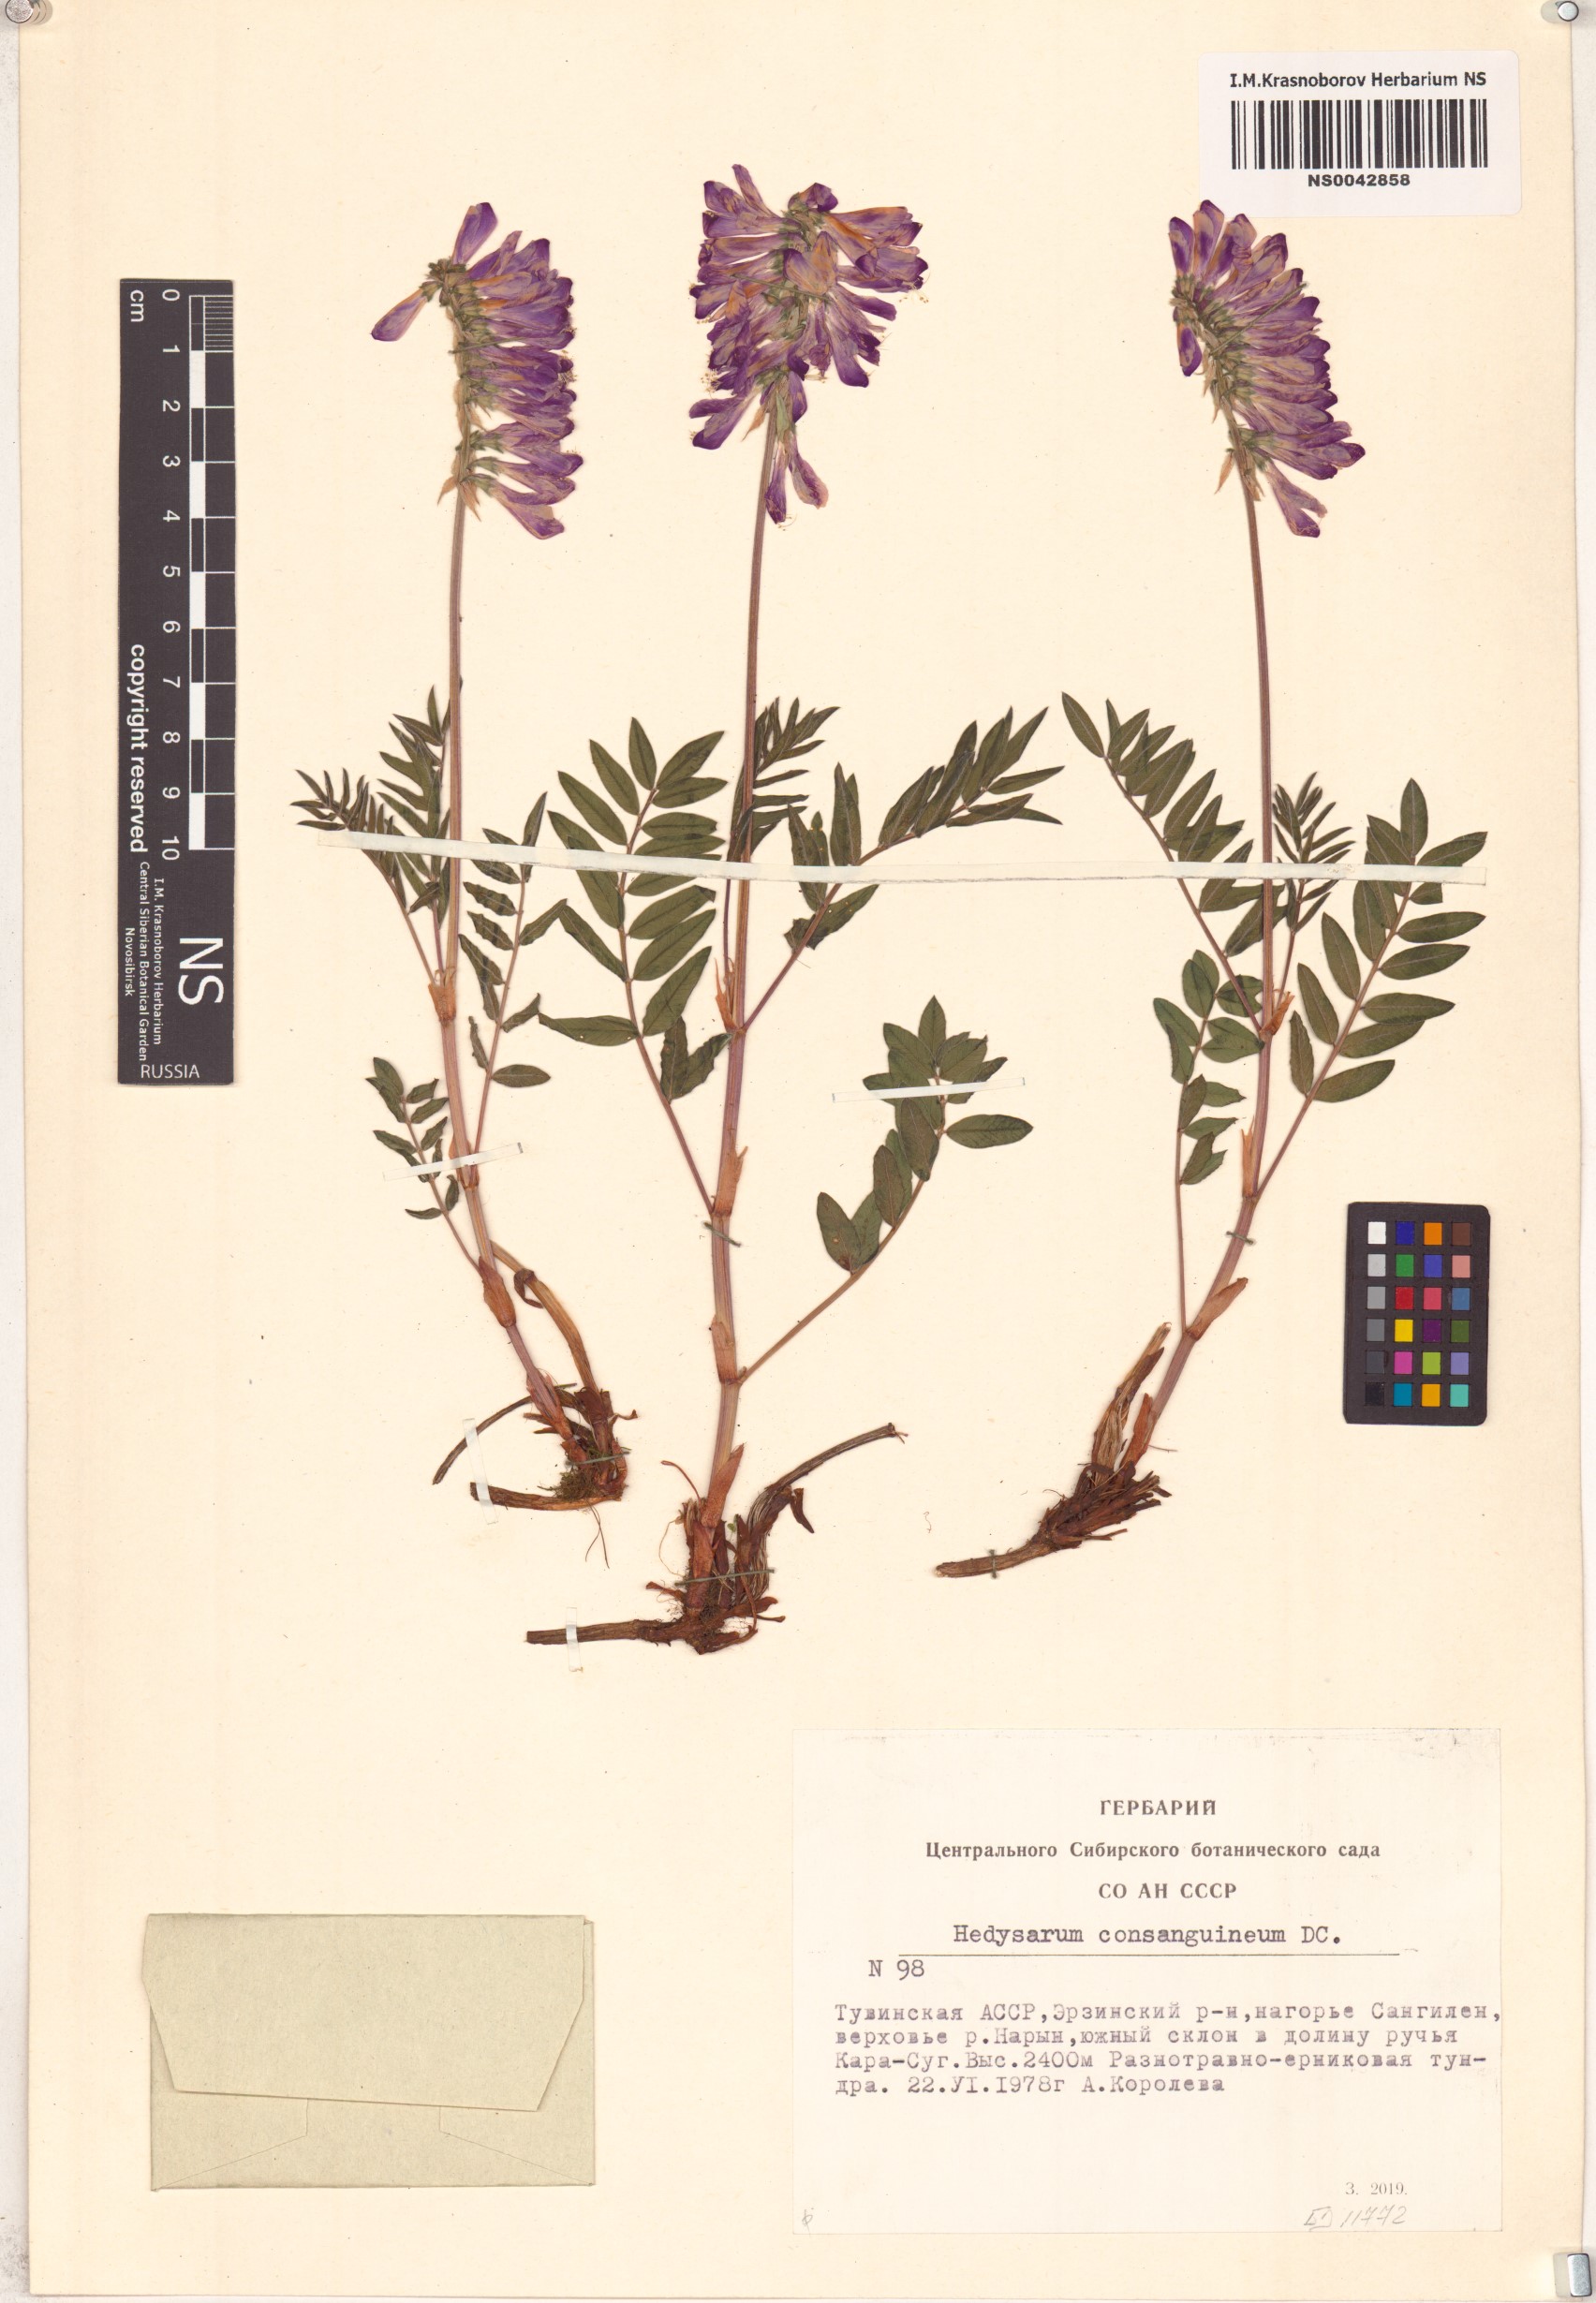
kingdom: Plantae
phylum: Tracheophyta
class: Magnoliopsida
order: Fabales
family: Fabaceae
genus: Hedysarum
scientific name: Hedysarum consanguineum
